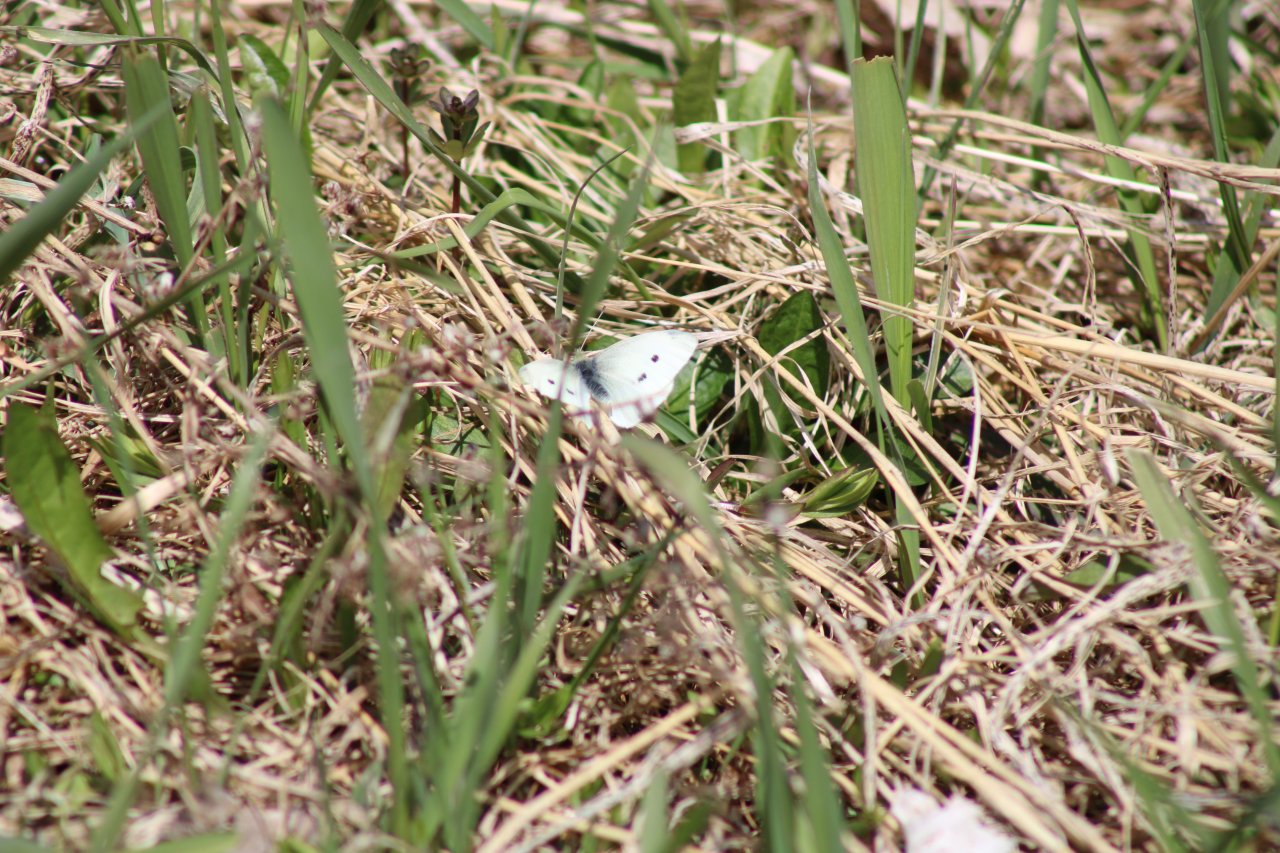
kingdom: Animalia
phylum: Arthropoda
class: Insecta
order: Lepidoptera
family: Pieridae
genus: Pieris
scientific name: Pieris rapae
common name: Cabbage White
